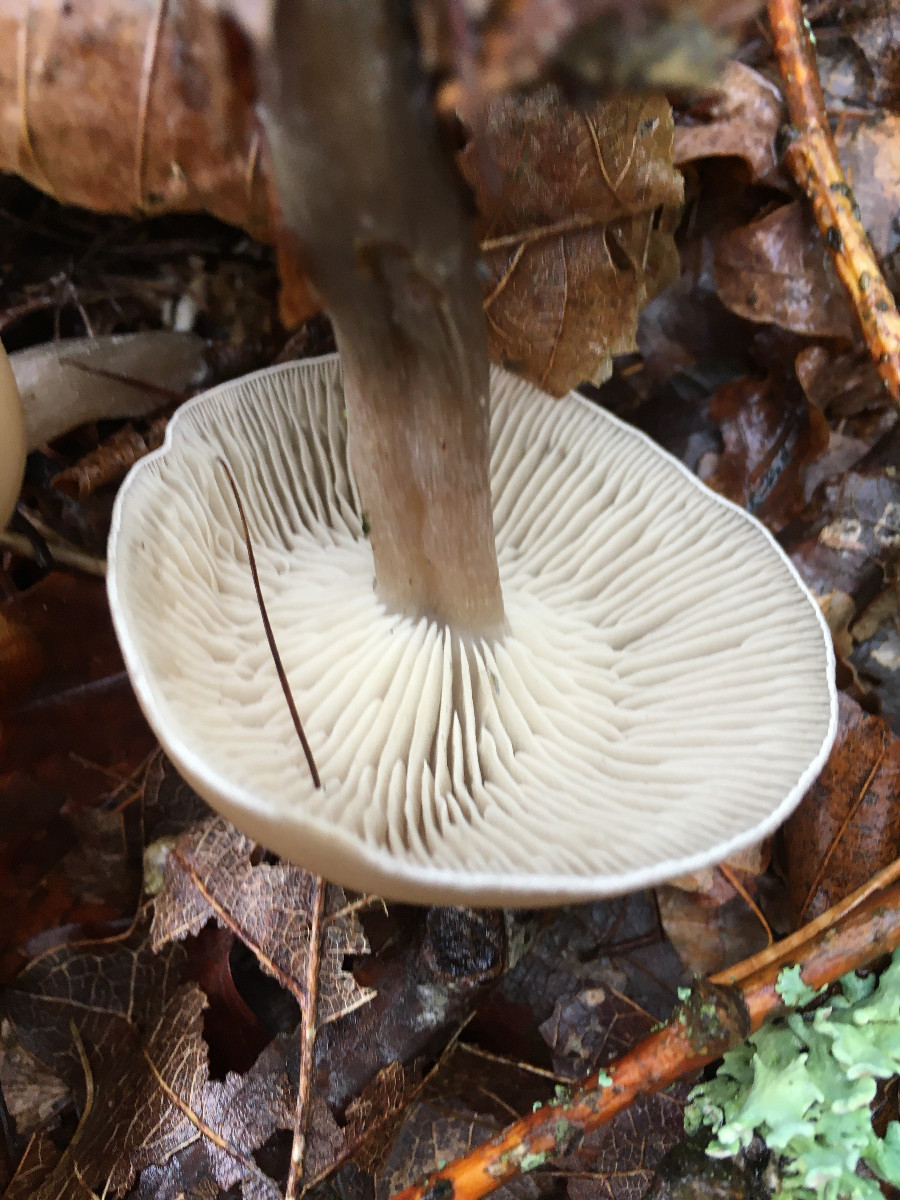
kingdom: Fungi
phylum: Basidiomycota
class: Agaricomycetes
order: Agaricales
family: Tricholomataceae
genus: Clitocybe
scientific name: Clitocybe metachroa
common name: grå tragthat
